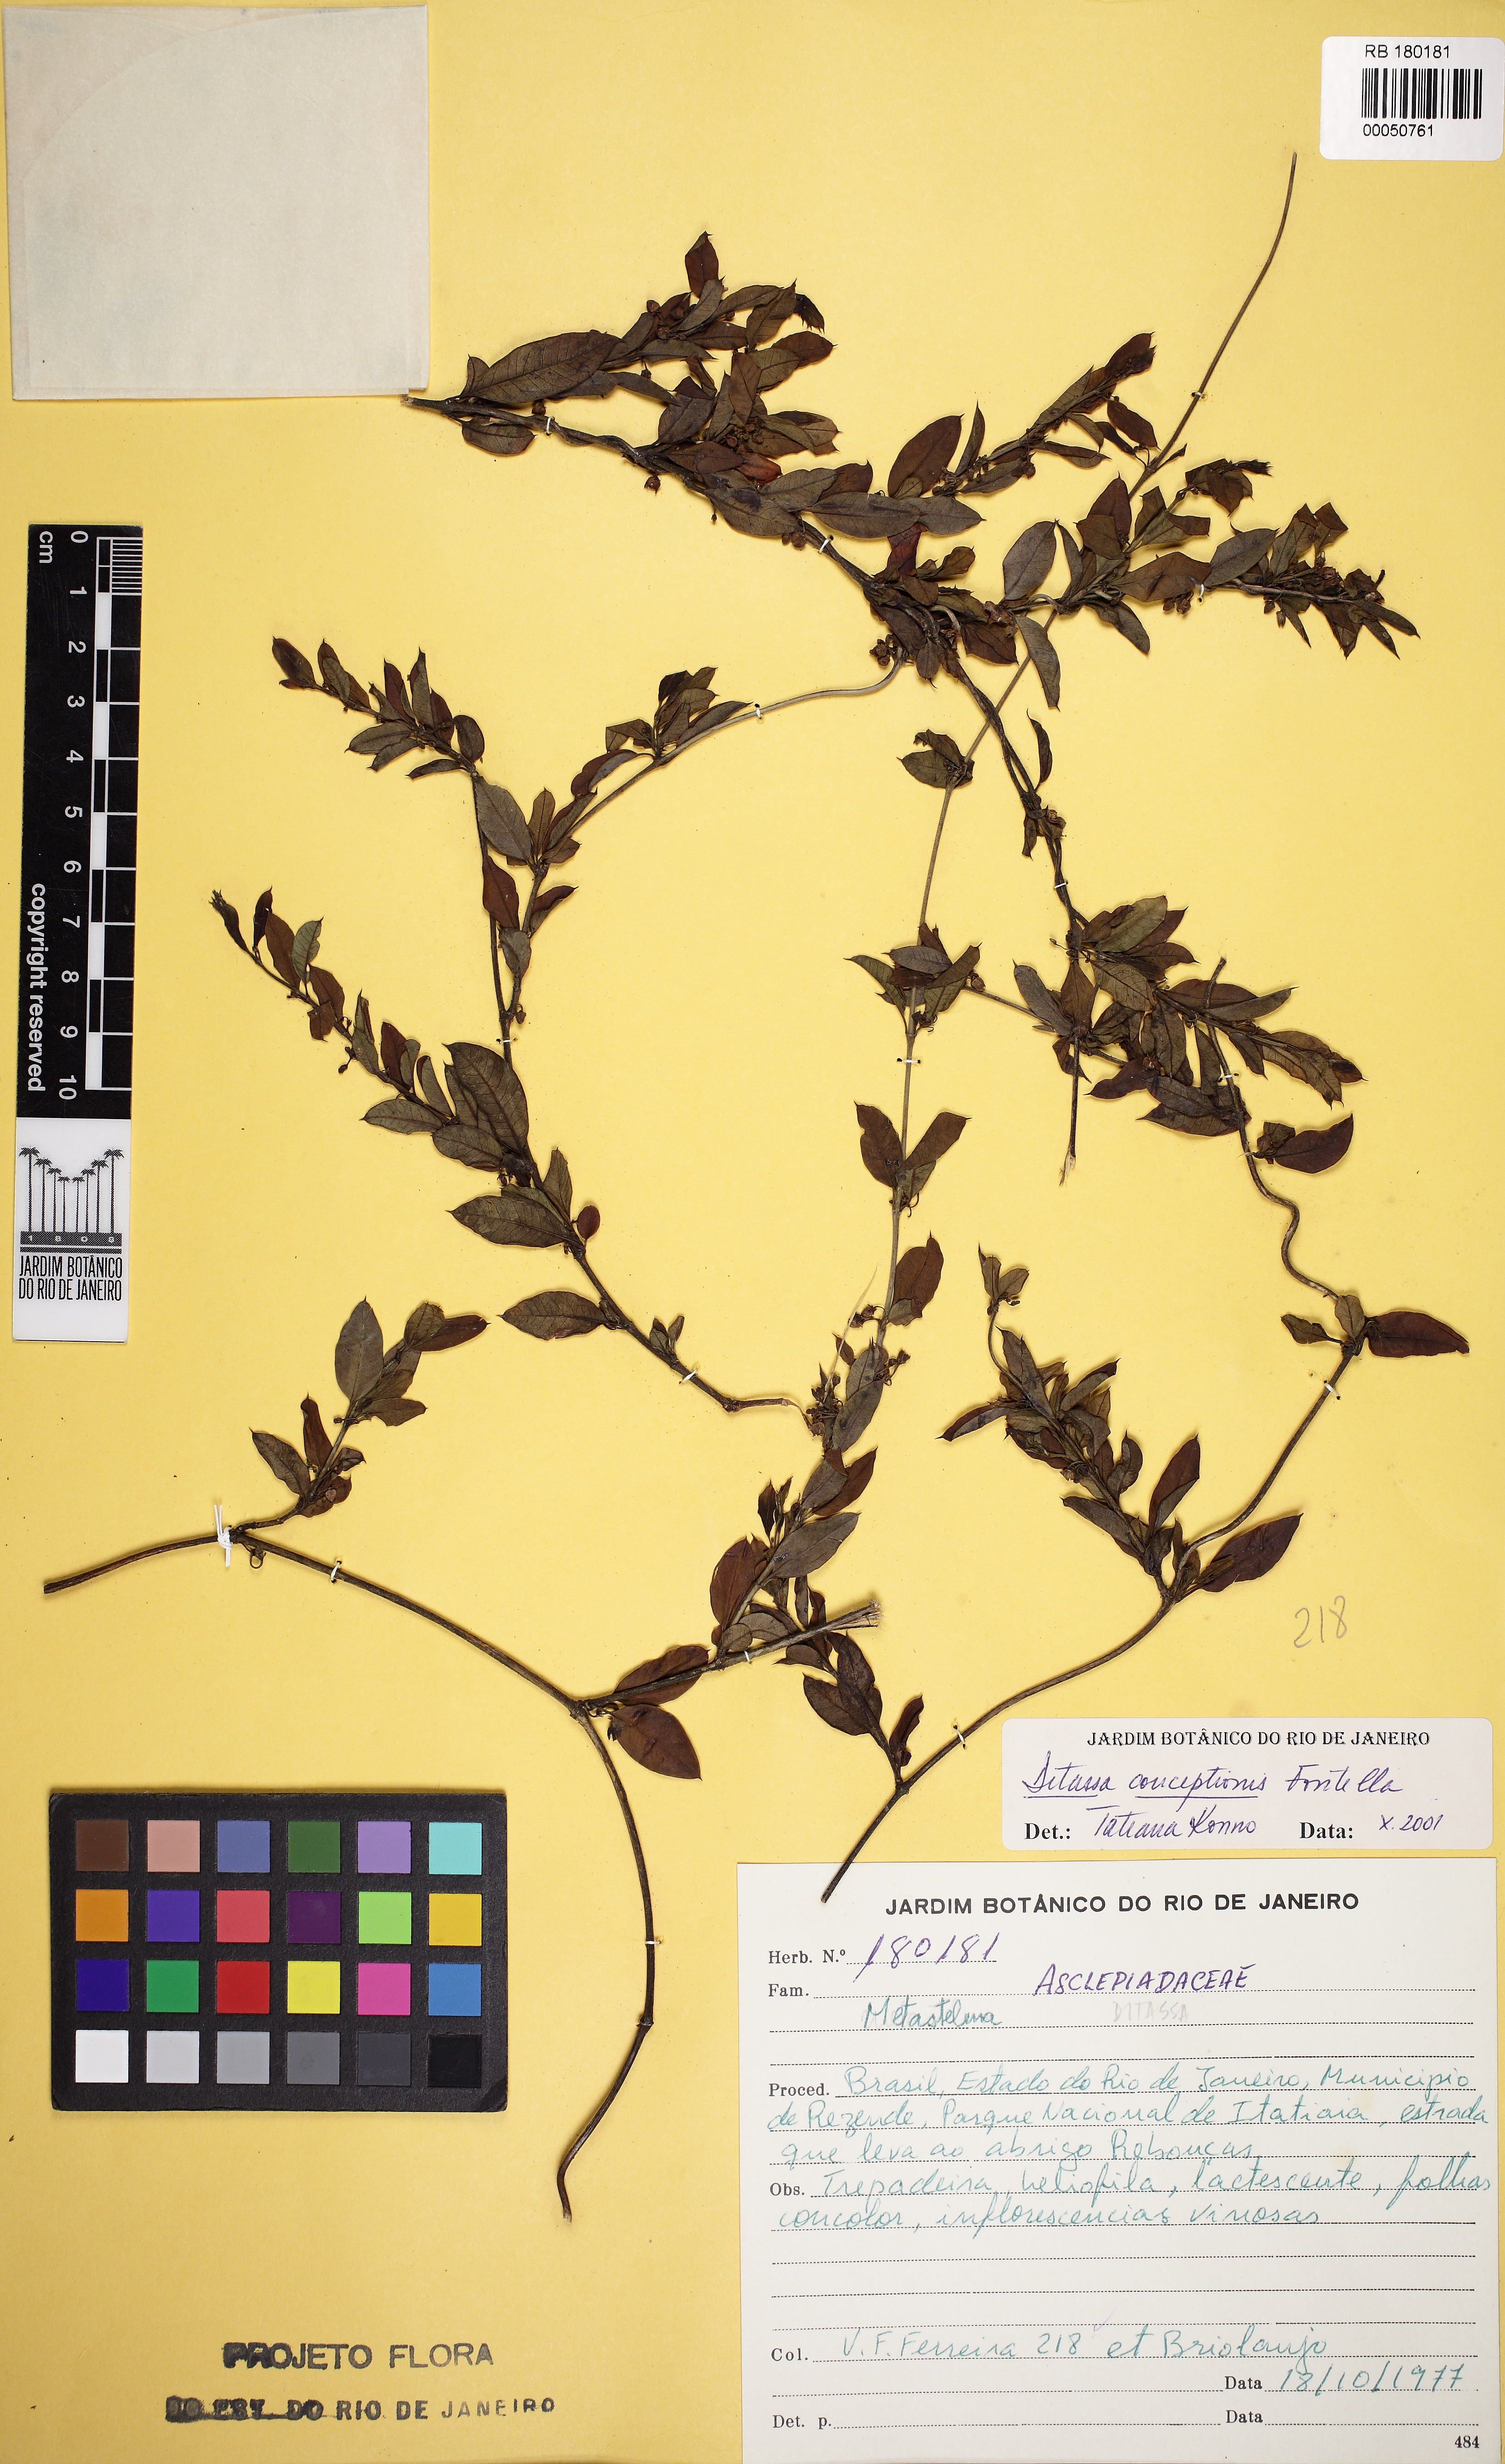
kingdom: Plantae
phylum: Tracheophyta
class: Magnoliopsida
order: Gentianales
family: Apocynaceae
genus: Ditassa
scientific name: Ditassa conceptionis
